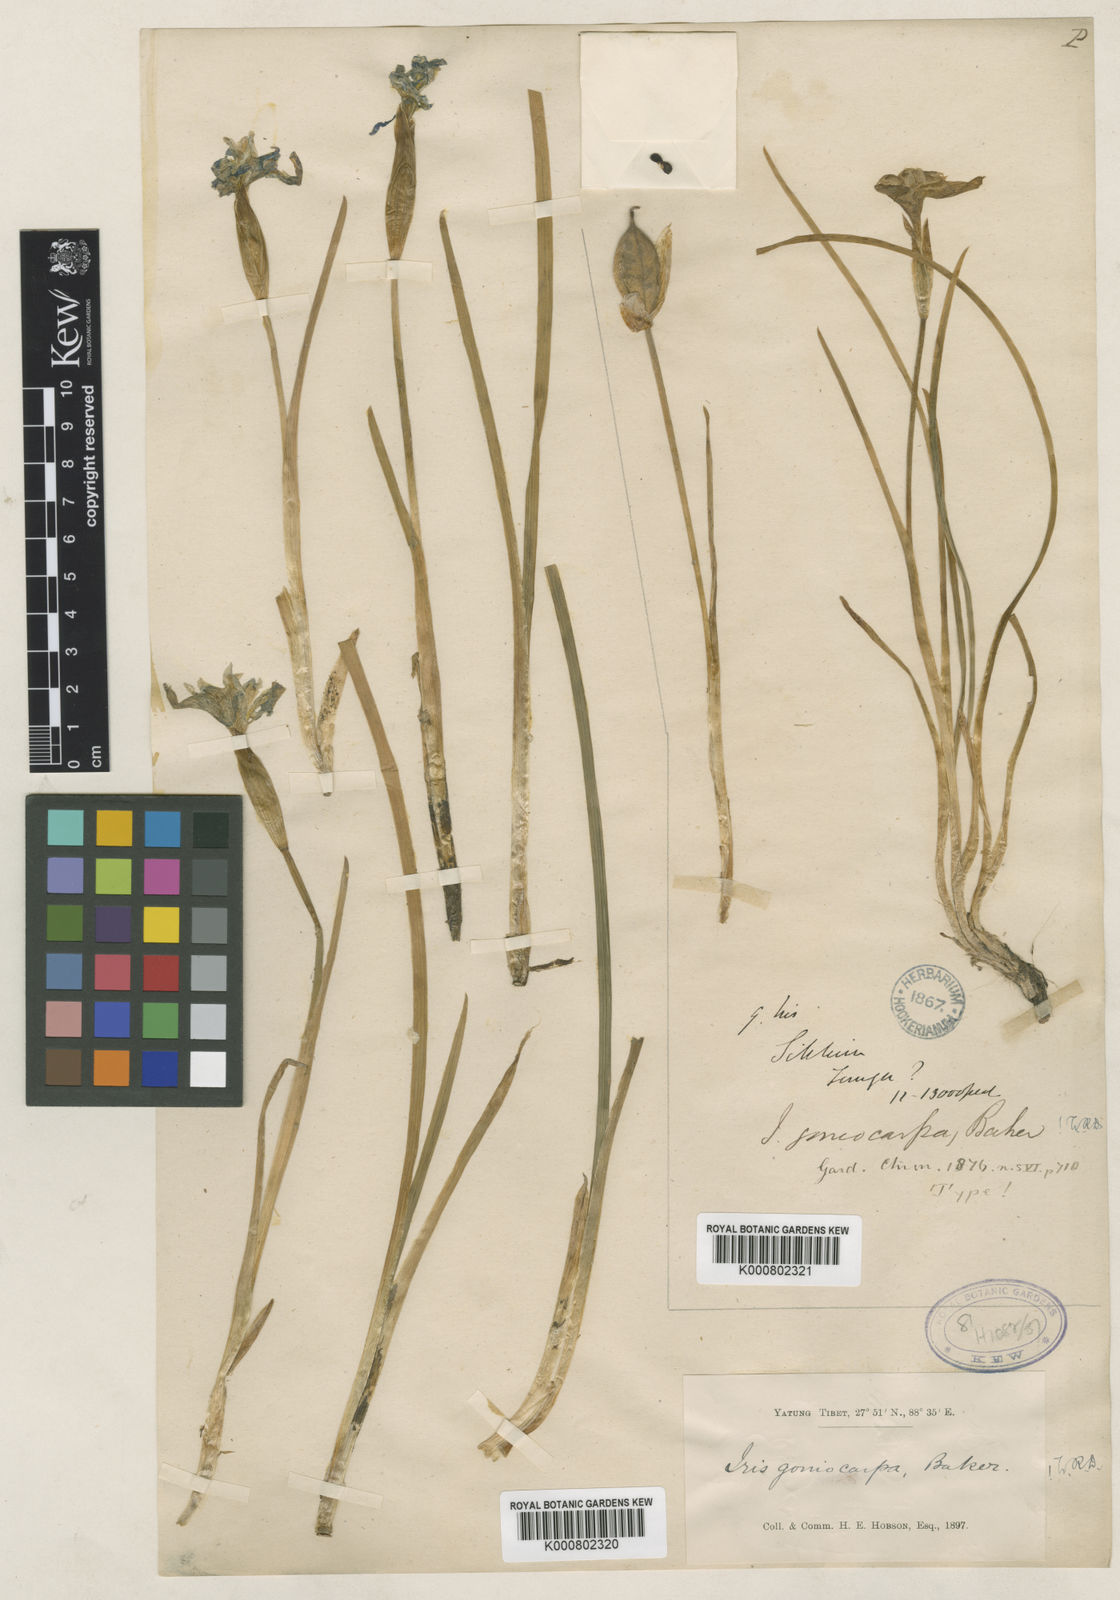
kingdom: Plantae
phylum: Tracheophyta
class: Liliopsida
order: Asparagales
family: Iridaceae
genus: Iris
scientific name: Iris goniocarpa
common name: Angular-fruit iris
